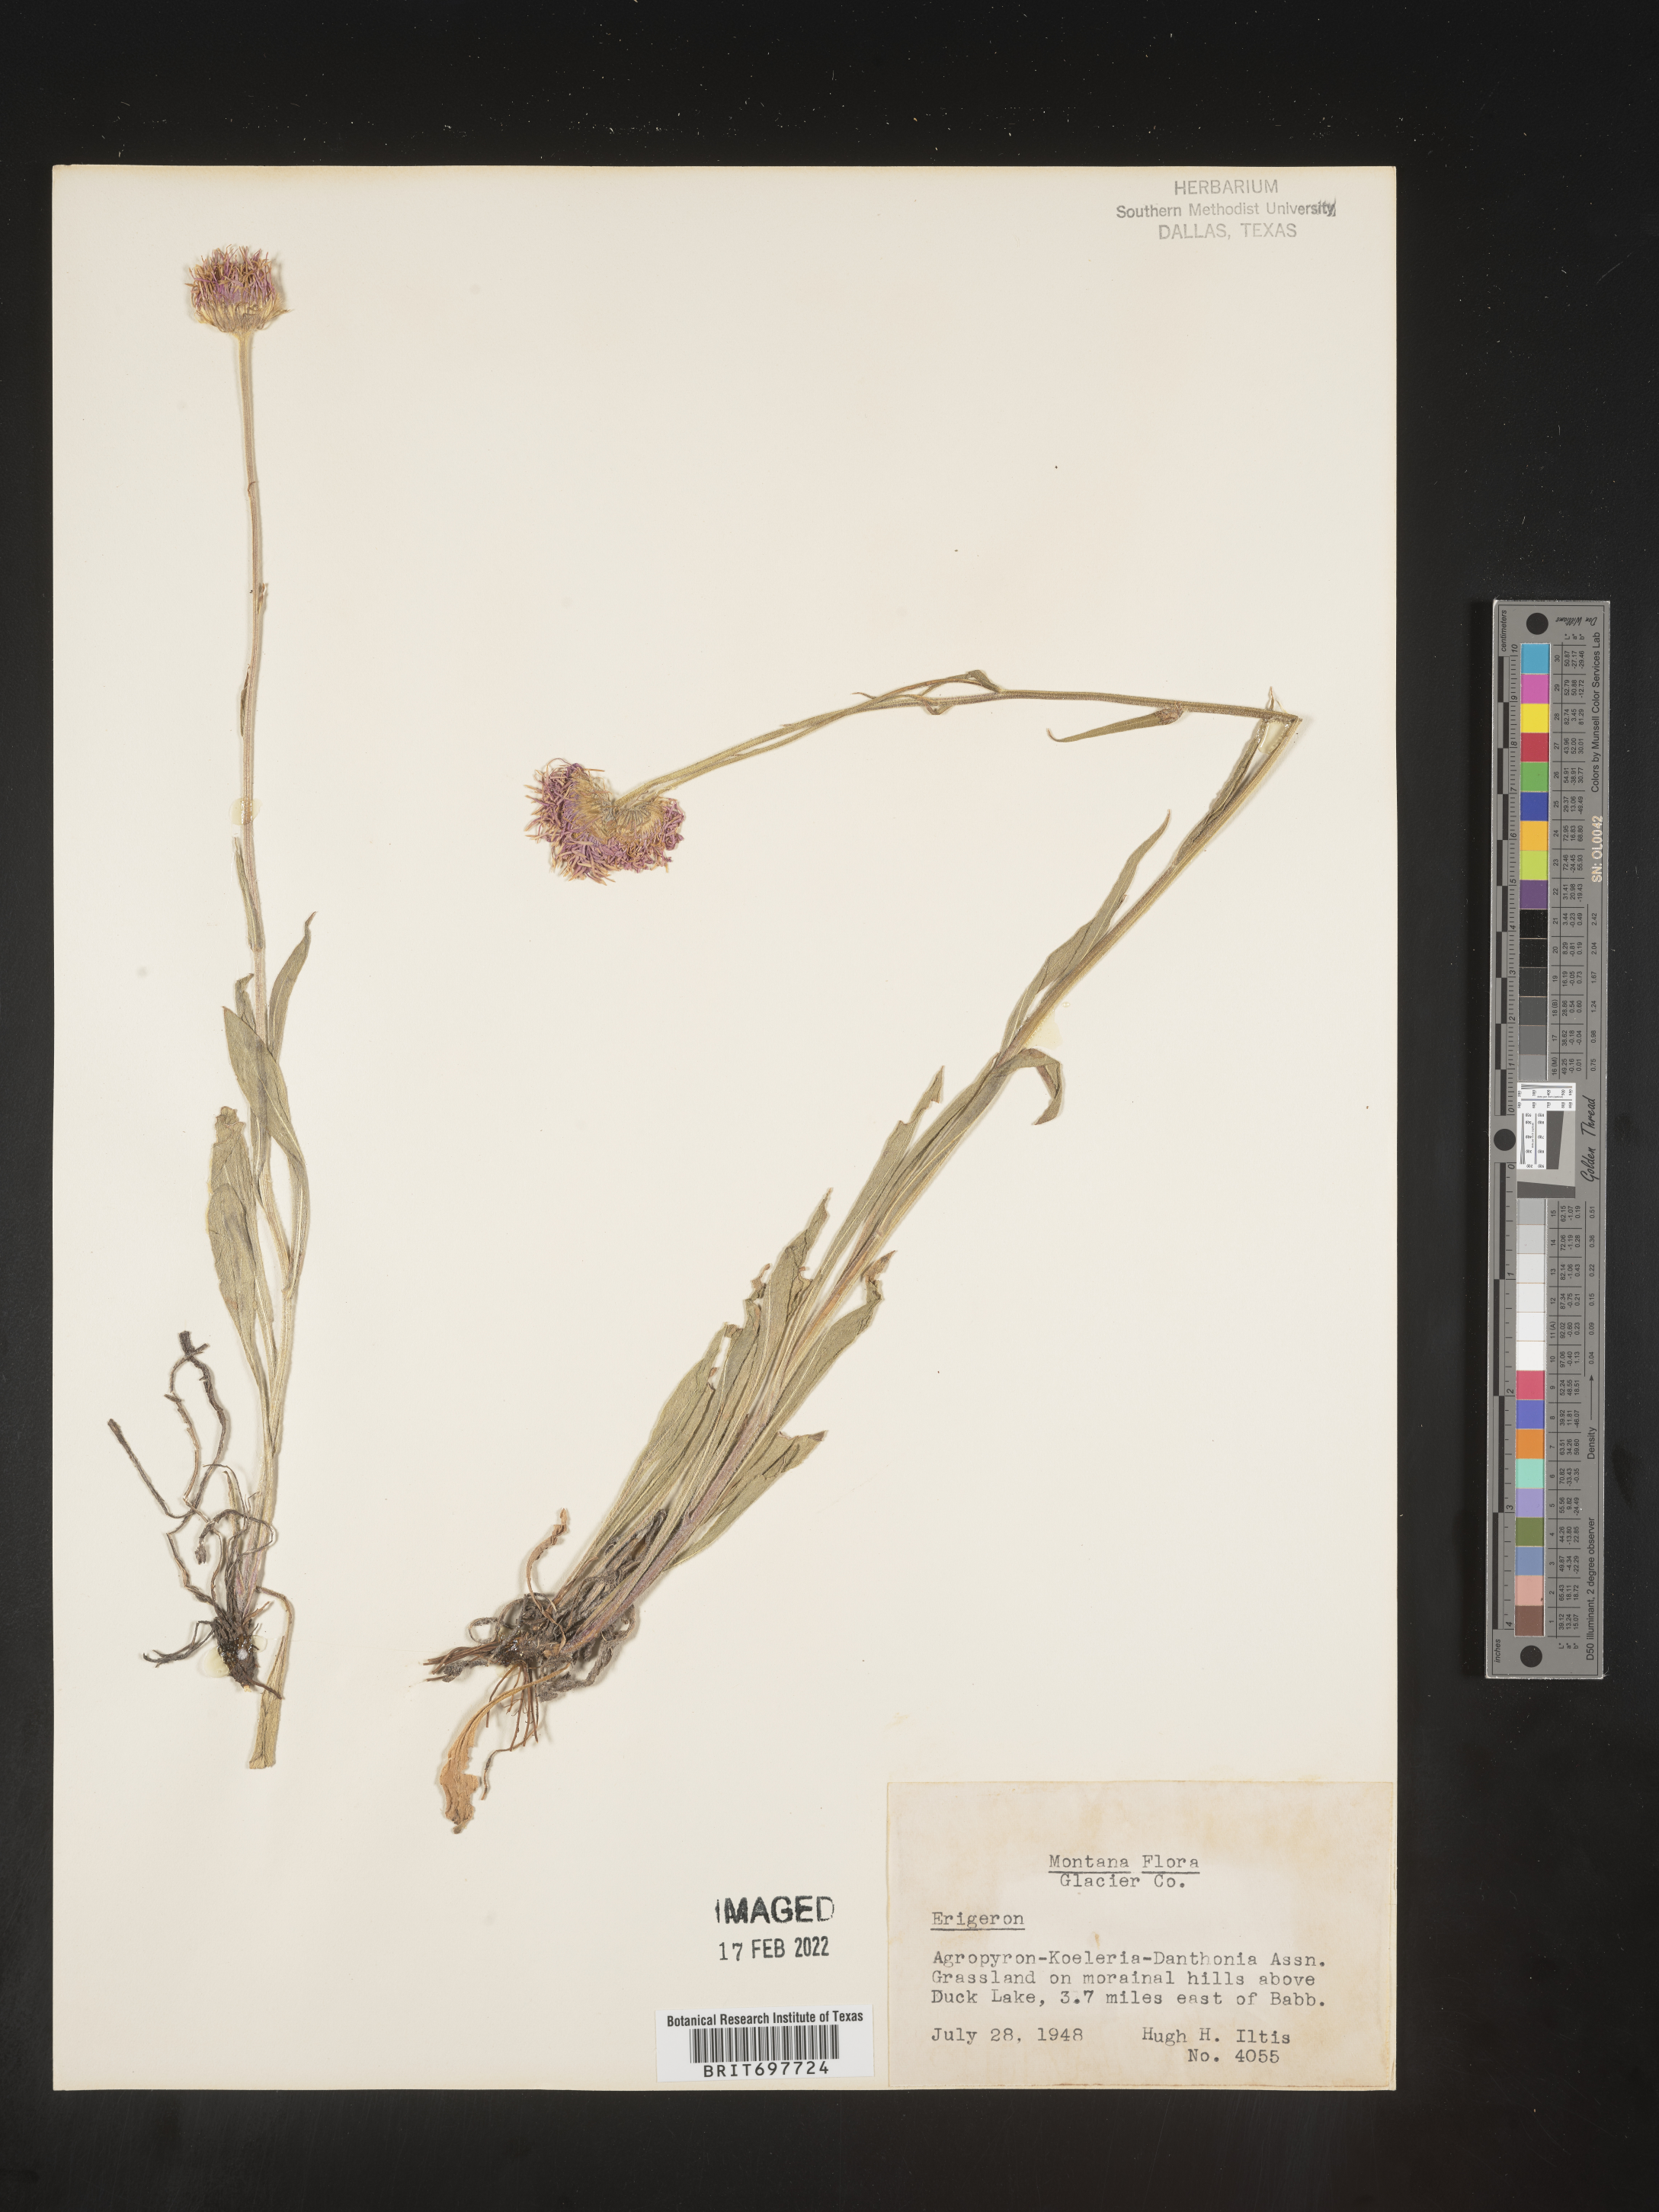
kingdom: Plantae
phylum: Tracheophyta
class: Magnoliopsida
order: Asterales
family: Asteraceae
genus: Erigeron
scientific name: Erigeron glabellus
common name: Smooth fleabane
